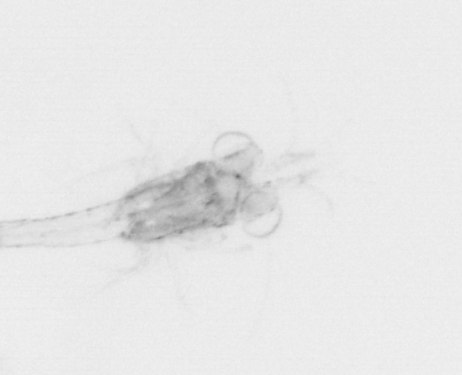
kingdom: Chromista
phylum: Ochrophyta
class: Bacillariophyceae
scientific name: Bacillariophyceae
